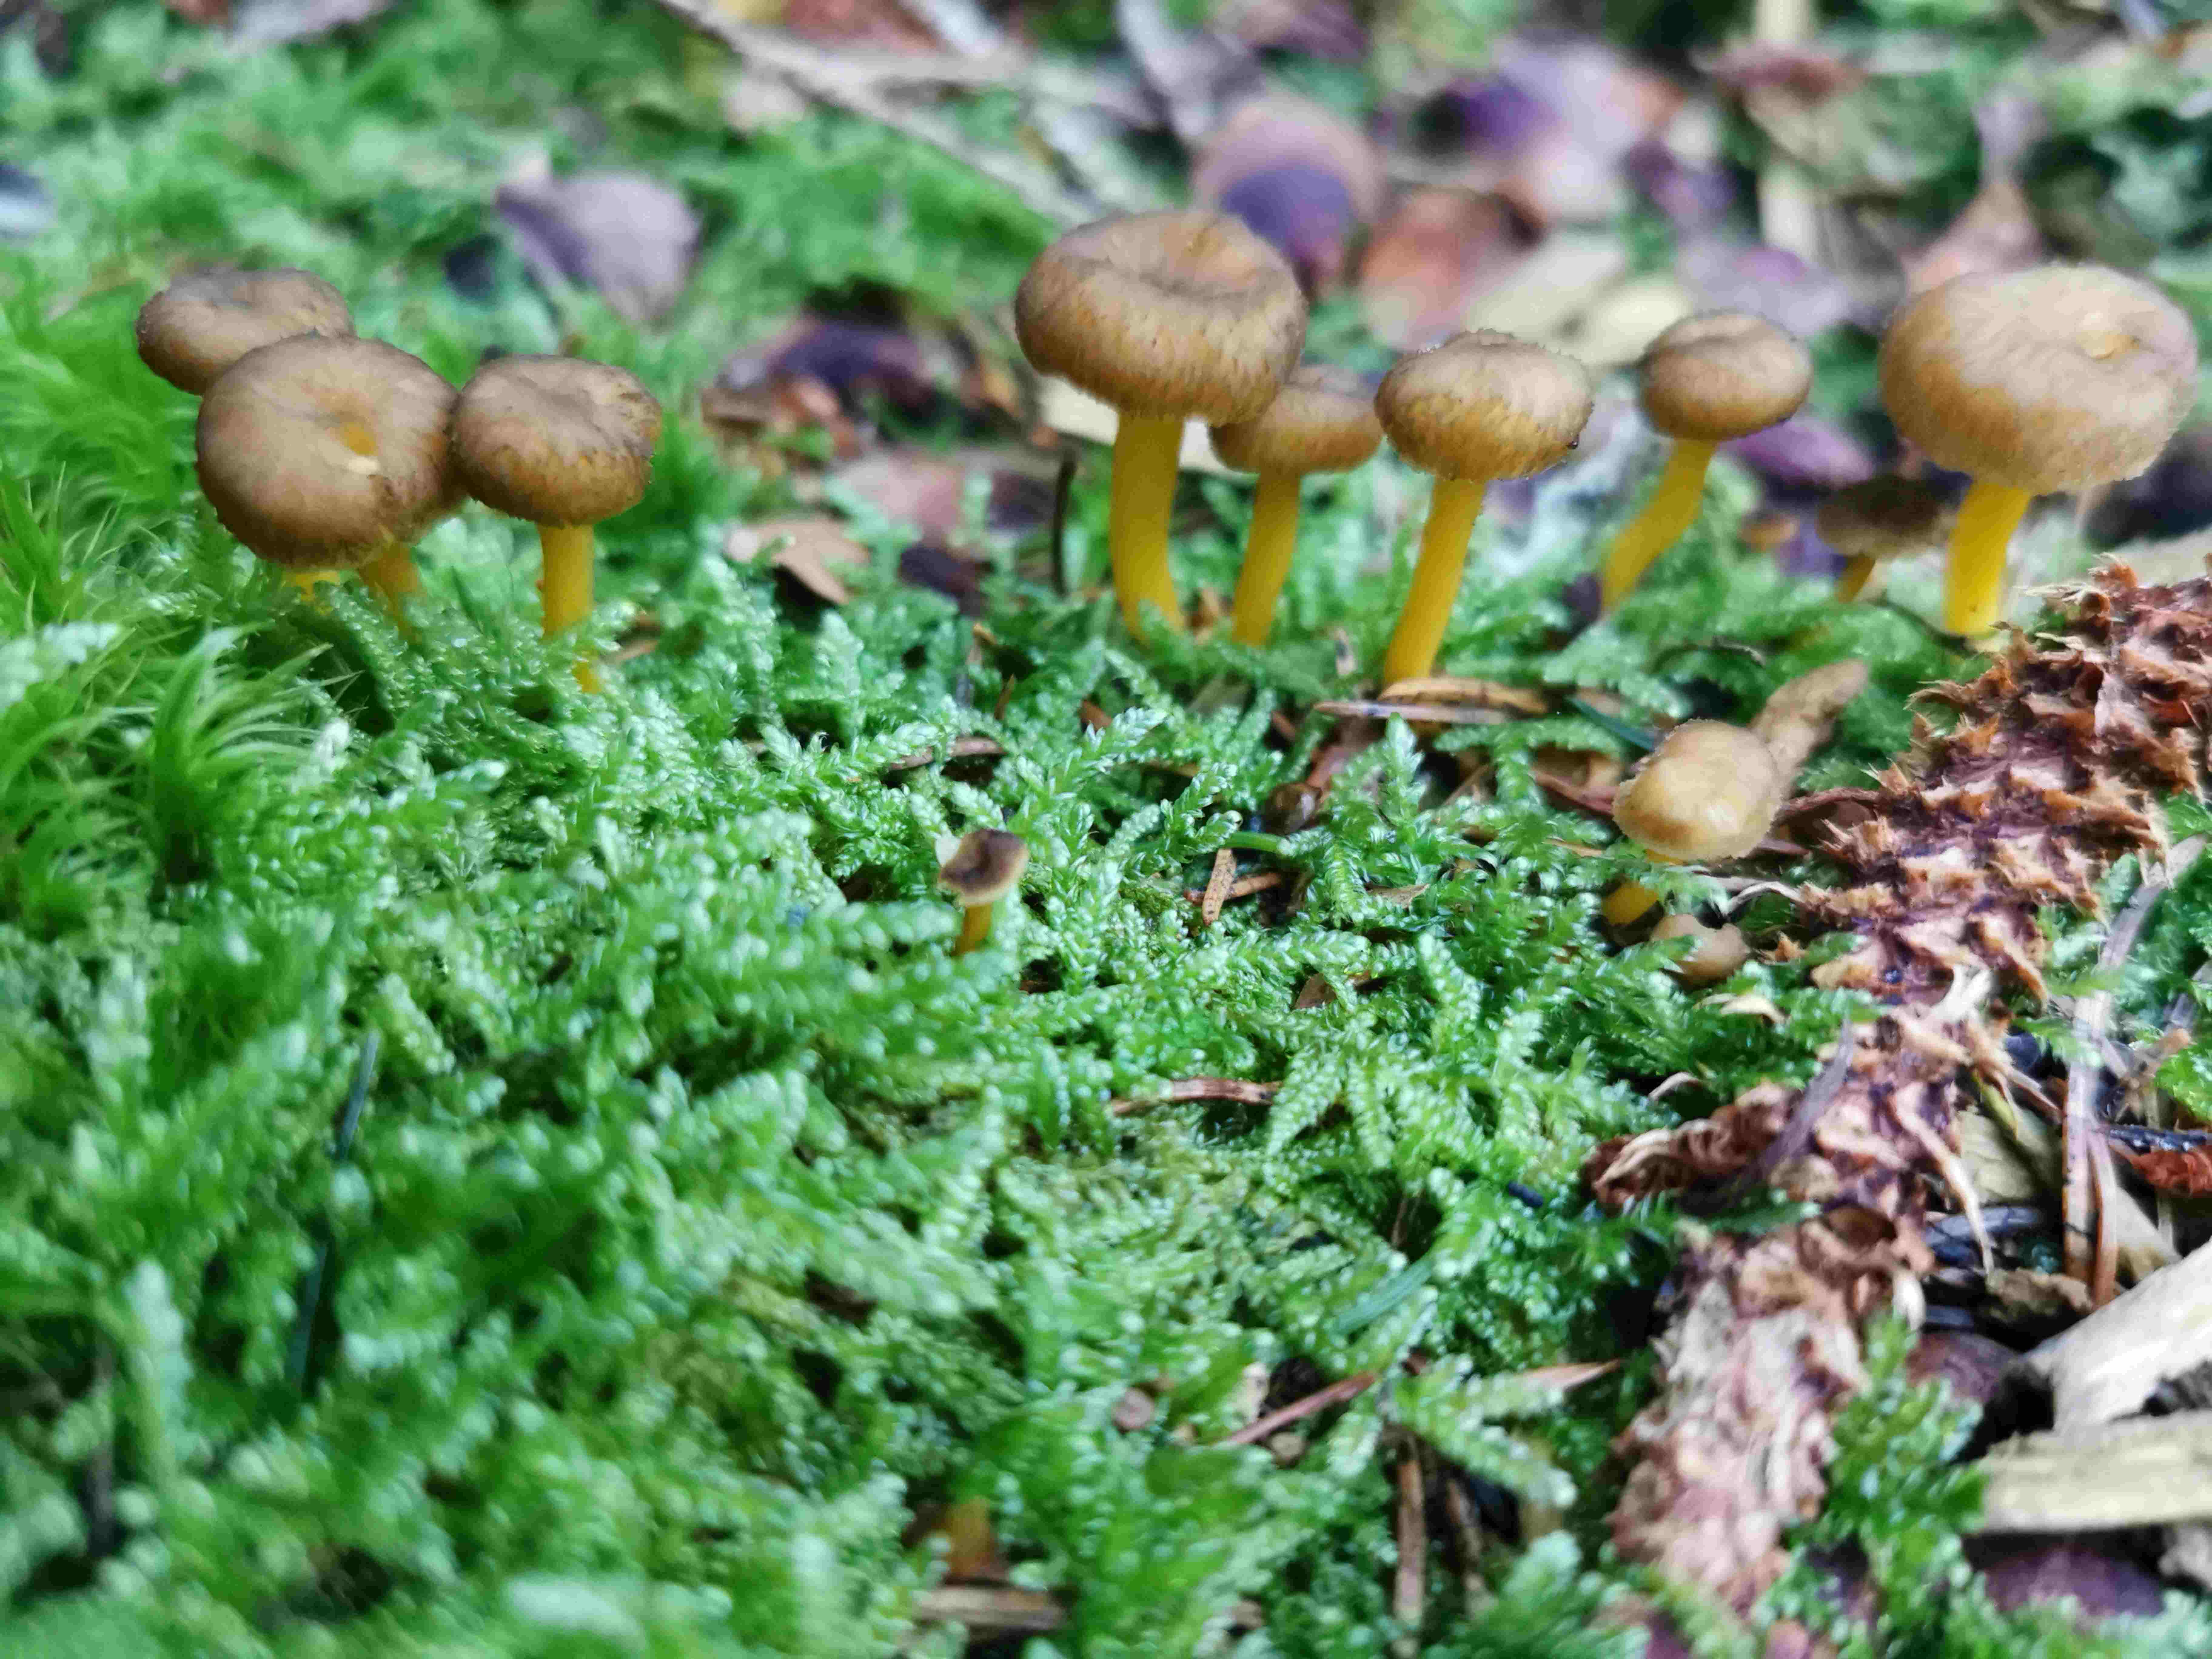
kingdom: Fungi
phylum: Basidiomycota
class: Agaricomycetes
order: Cantharellales
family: Hydnaceae
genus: Craterellus
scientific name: Craterellus tubaeformis
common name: tragt-kantarel
